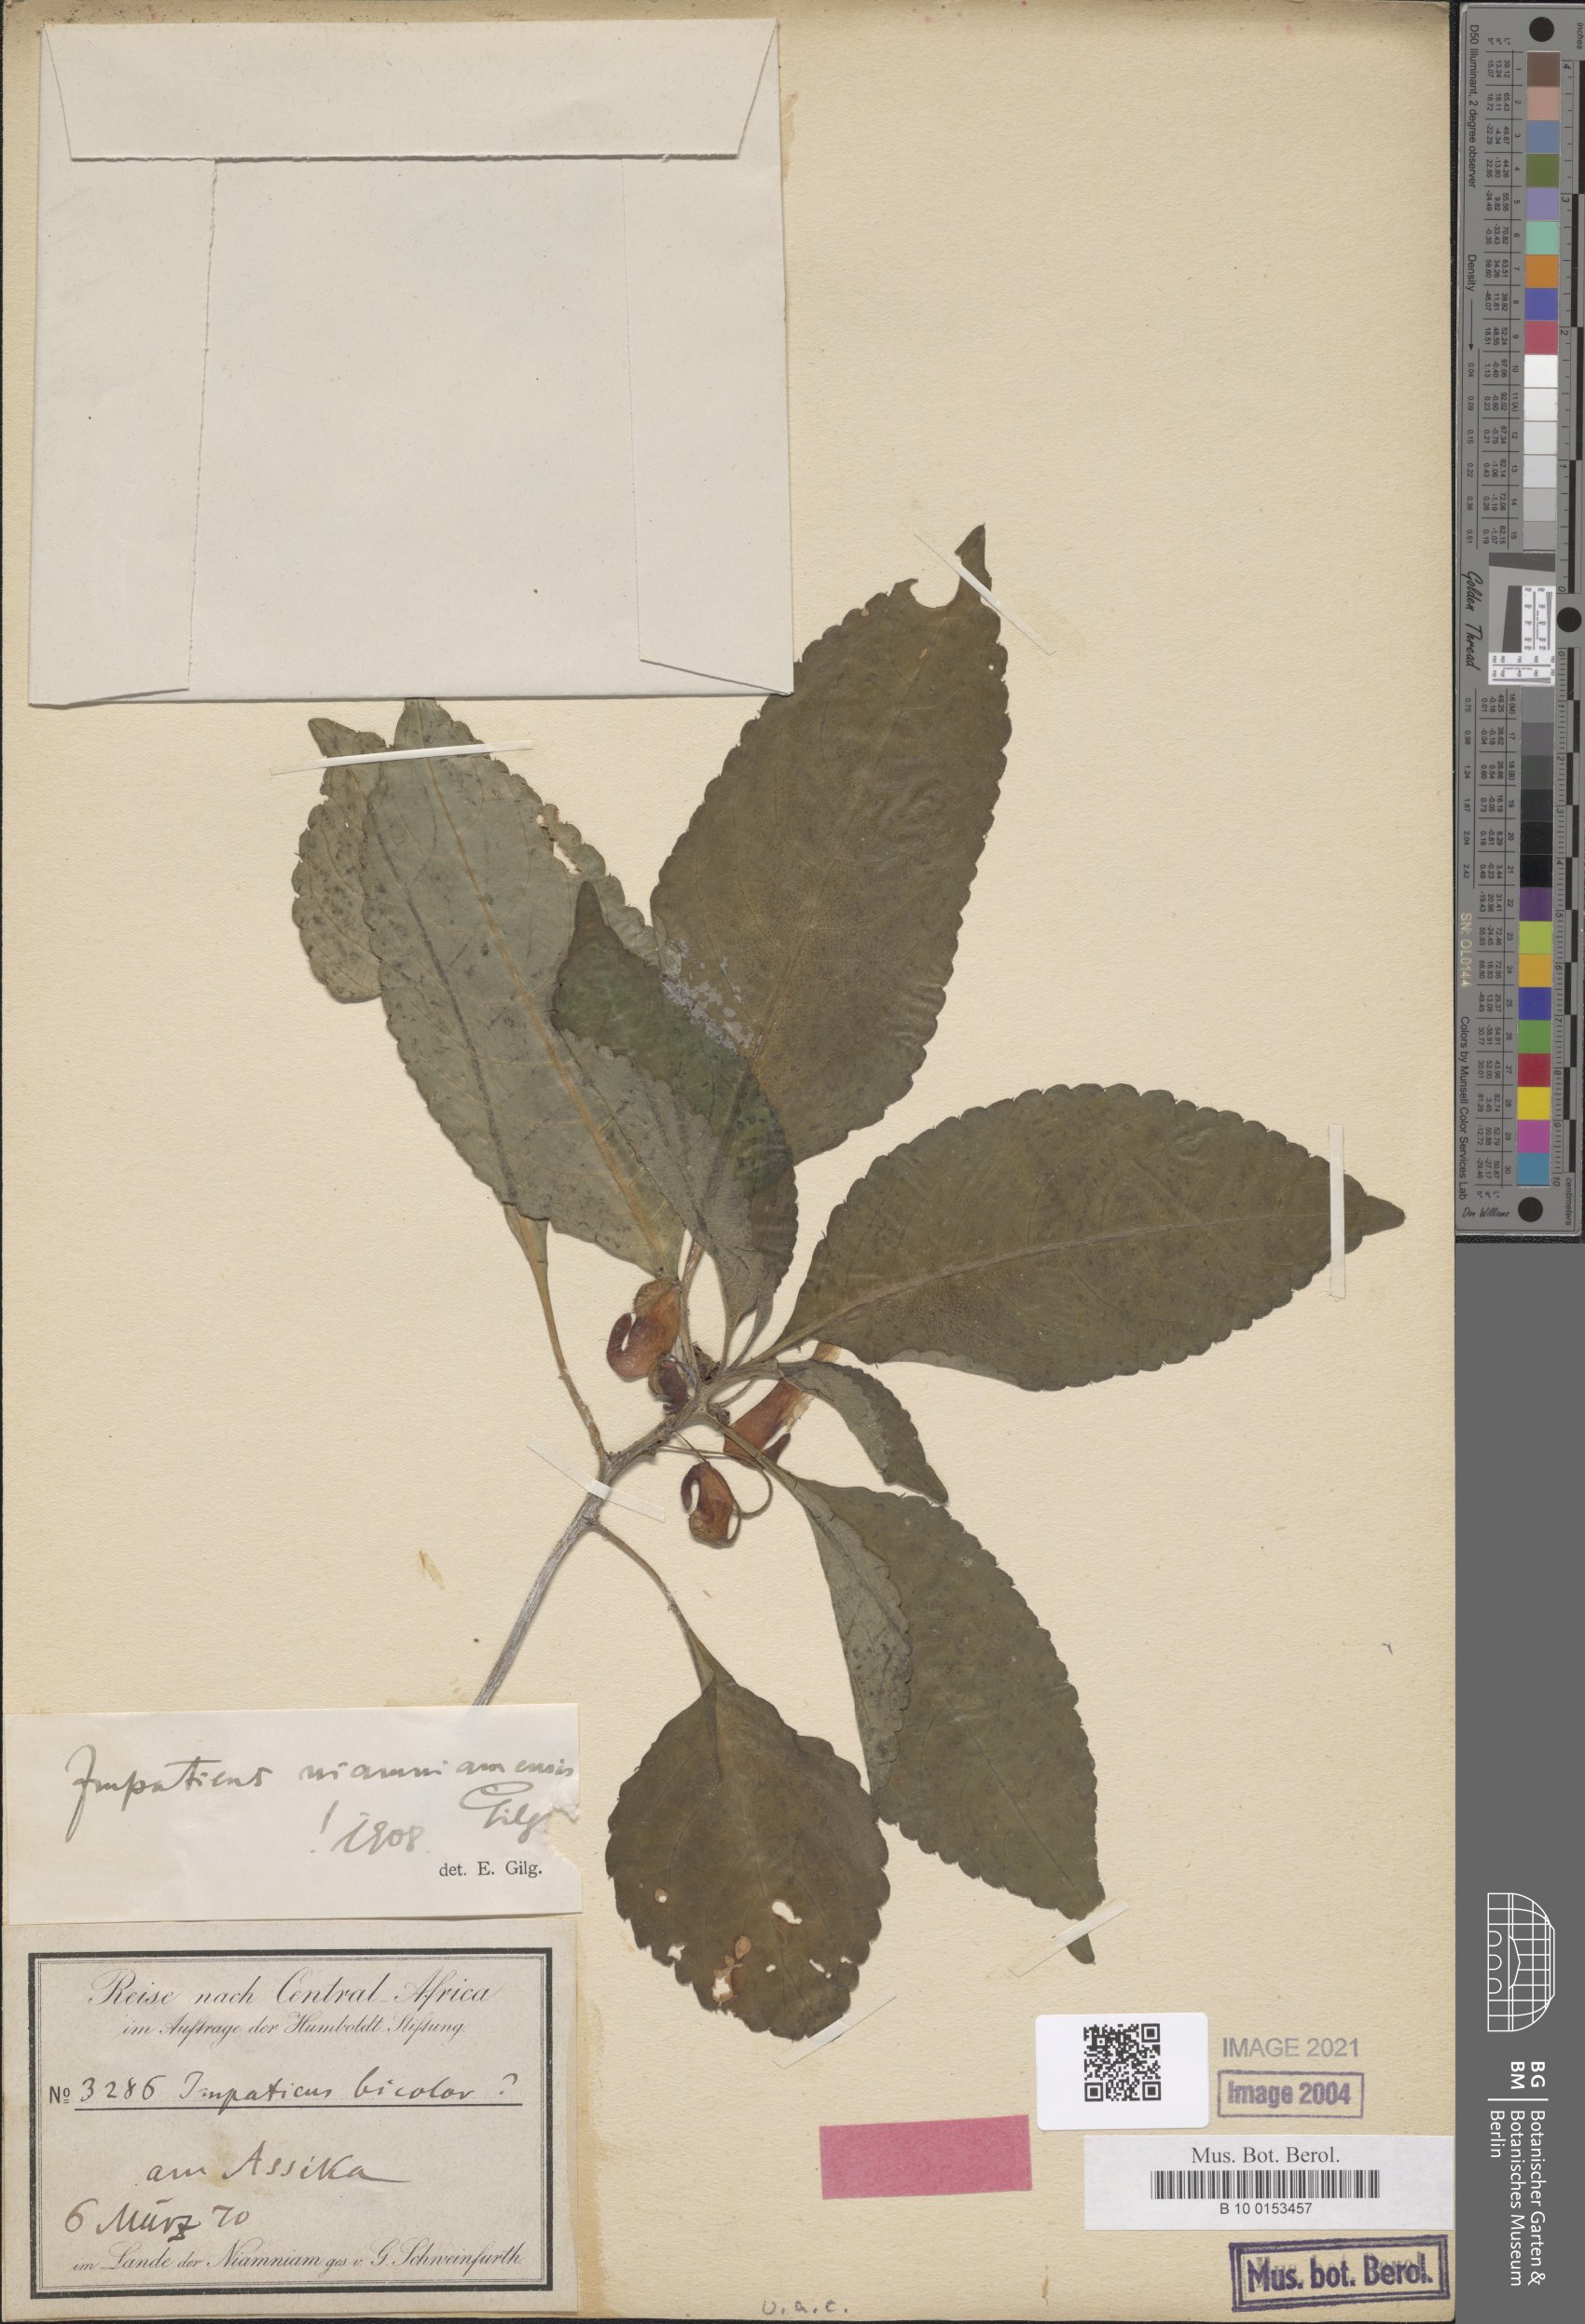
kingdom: Plantae
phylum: Tracheophyta
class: Magnoliopsida
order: Ericales
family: Balsaminaceae
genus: Impatiens
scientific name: Impatiens niamniamensis
